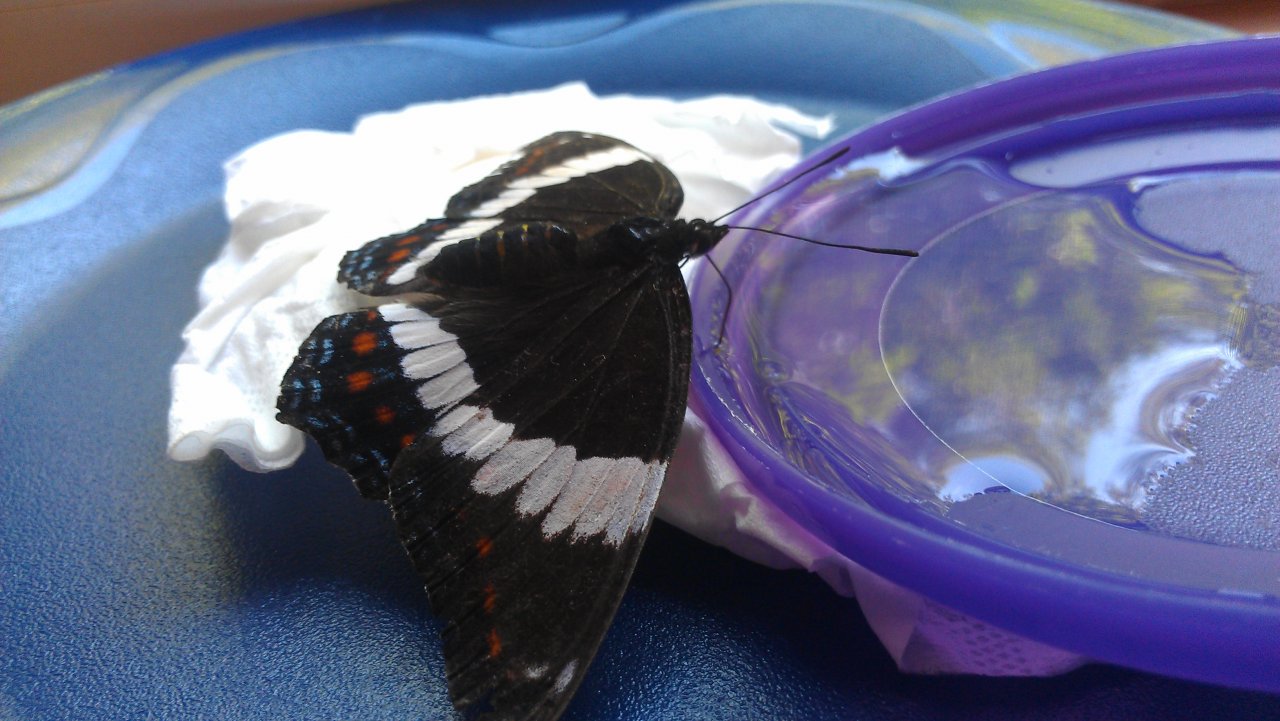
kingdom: Animalia
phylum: Arthropoda
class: Insecta
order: Lepidoptera
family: Nymphalidae
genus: Limenitis
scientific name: Limenitis arthemis
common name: Red-spotted Admiral
